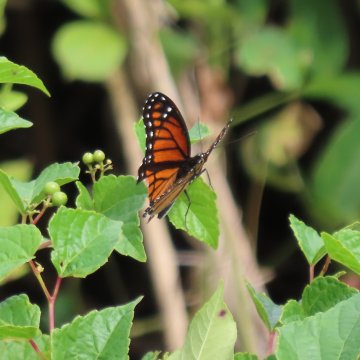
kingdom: Animalia
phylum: Arthropoda
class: Insecta
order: Lepidoptera
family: Nymphalidae
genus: Limenitis
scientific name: Limenitis archippus
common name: Viceroy
